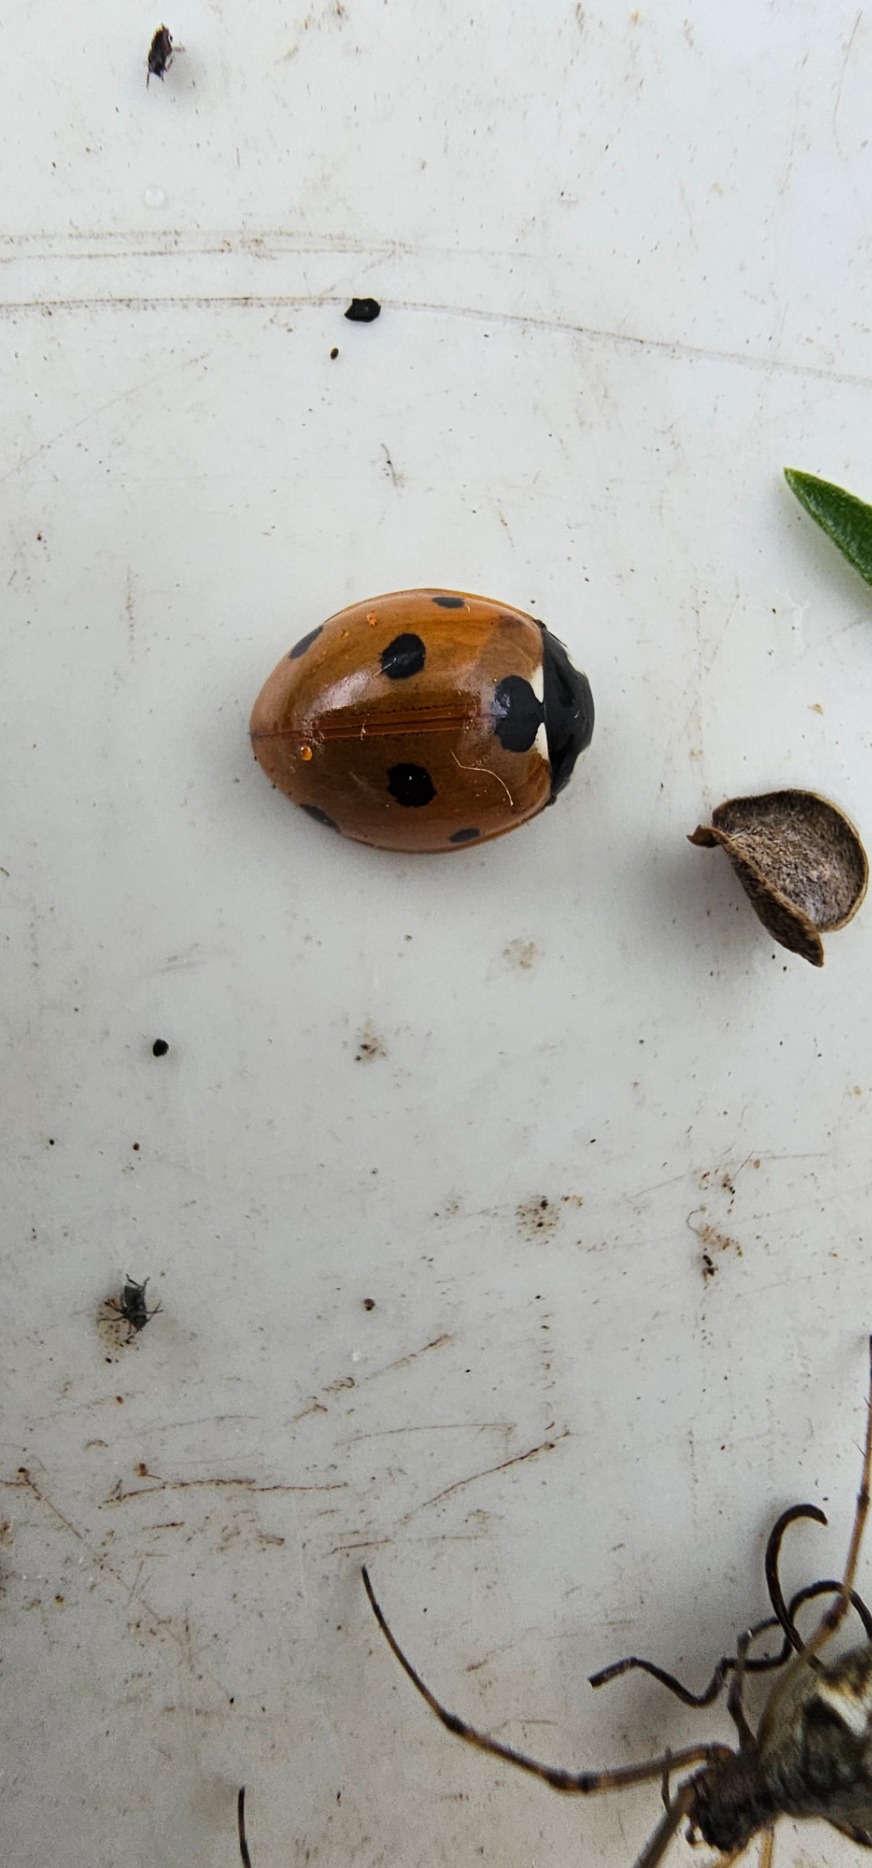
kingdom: Animalia
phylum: Arthropoda
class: Insecta
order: Coleoptera
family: Coccinellidae
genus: Coccinella
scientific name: Coccinella septempunctata
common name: Syvplettet mariehøne
